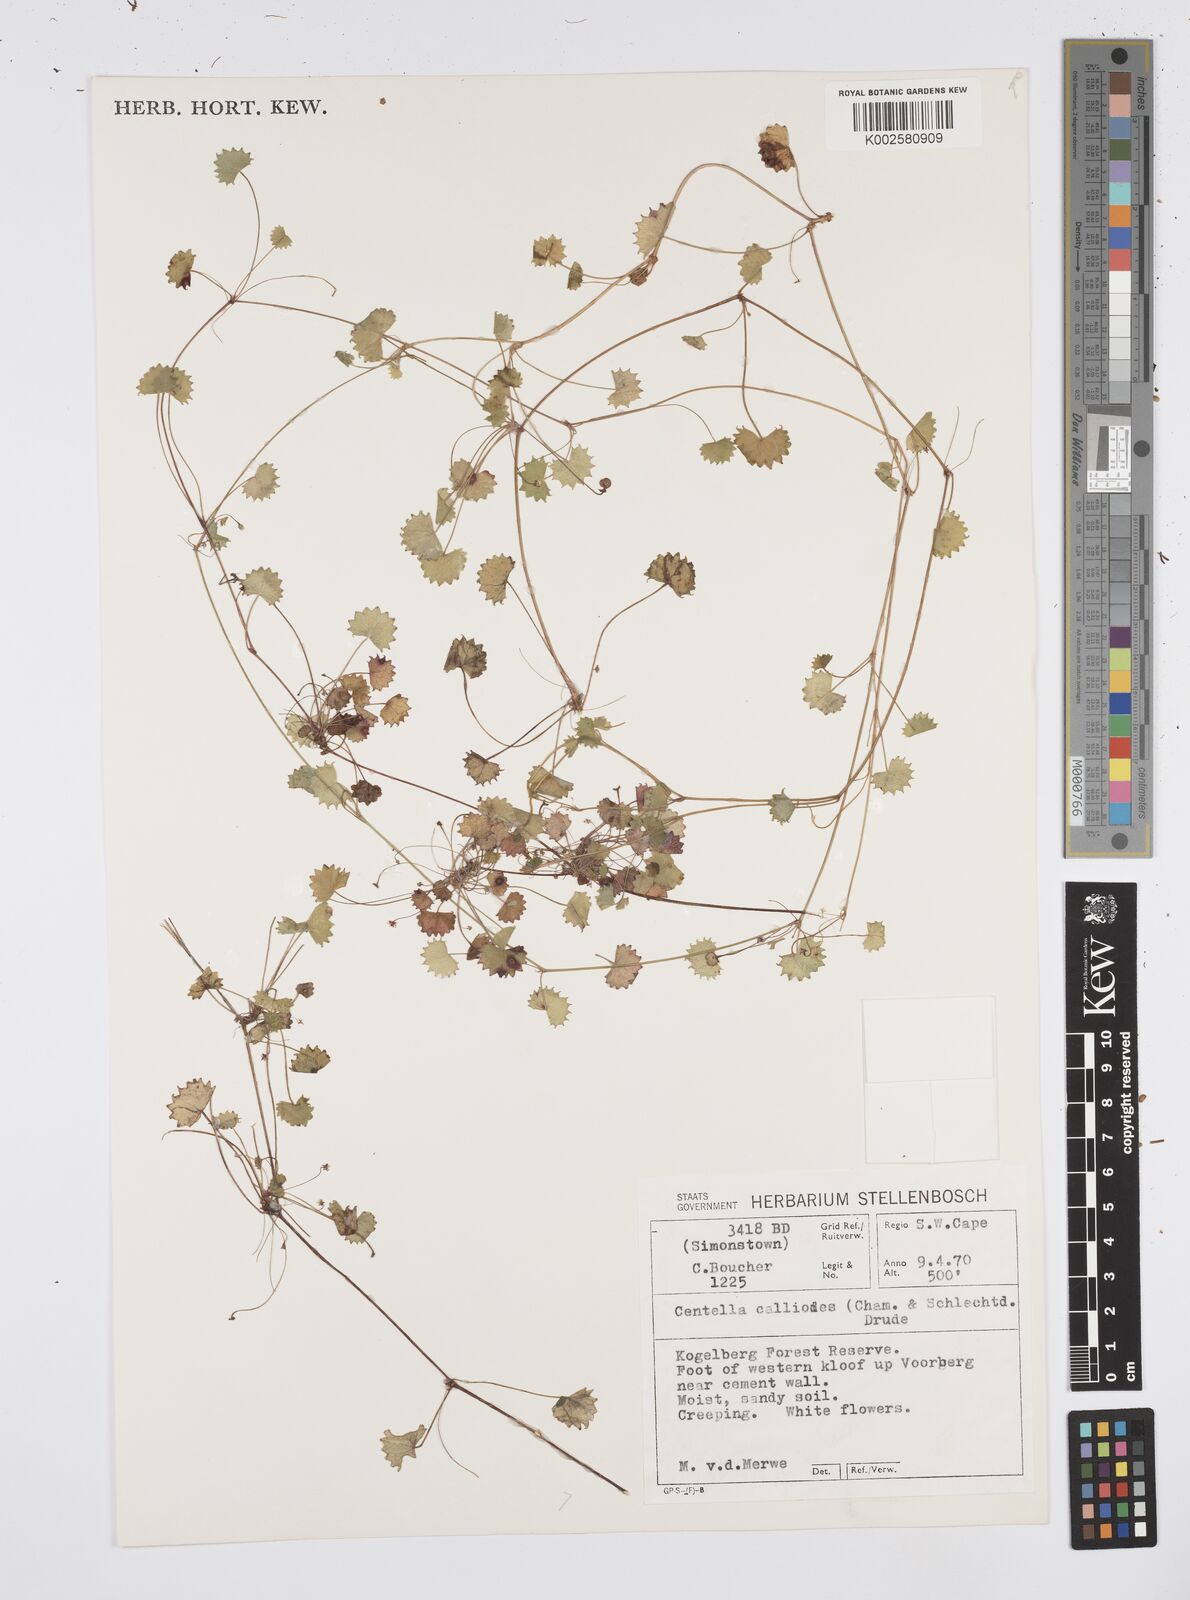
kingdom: Plantae
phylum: Tracheophyta
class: Magnoliopsida
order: Apiales
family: Apiaceae
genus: Centella
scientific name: Centella
